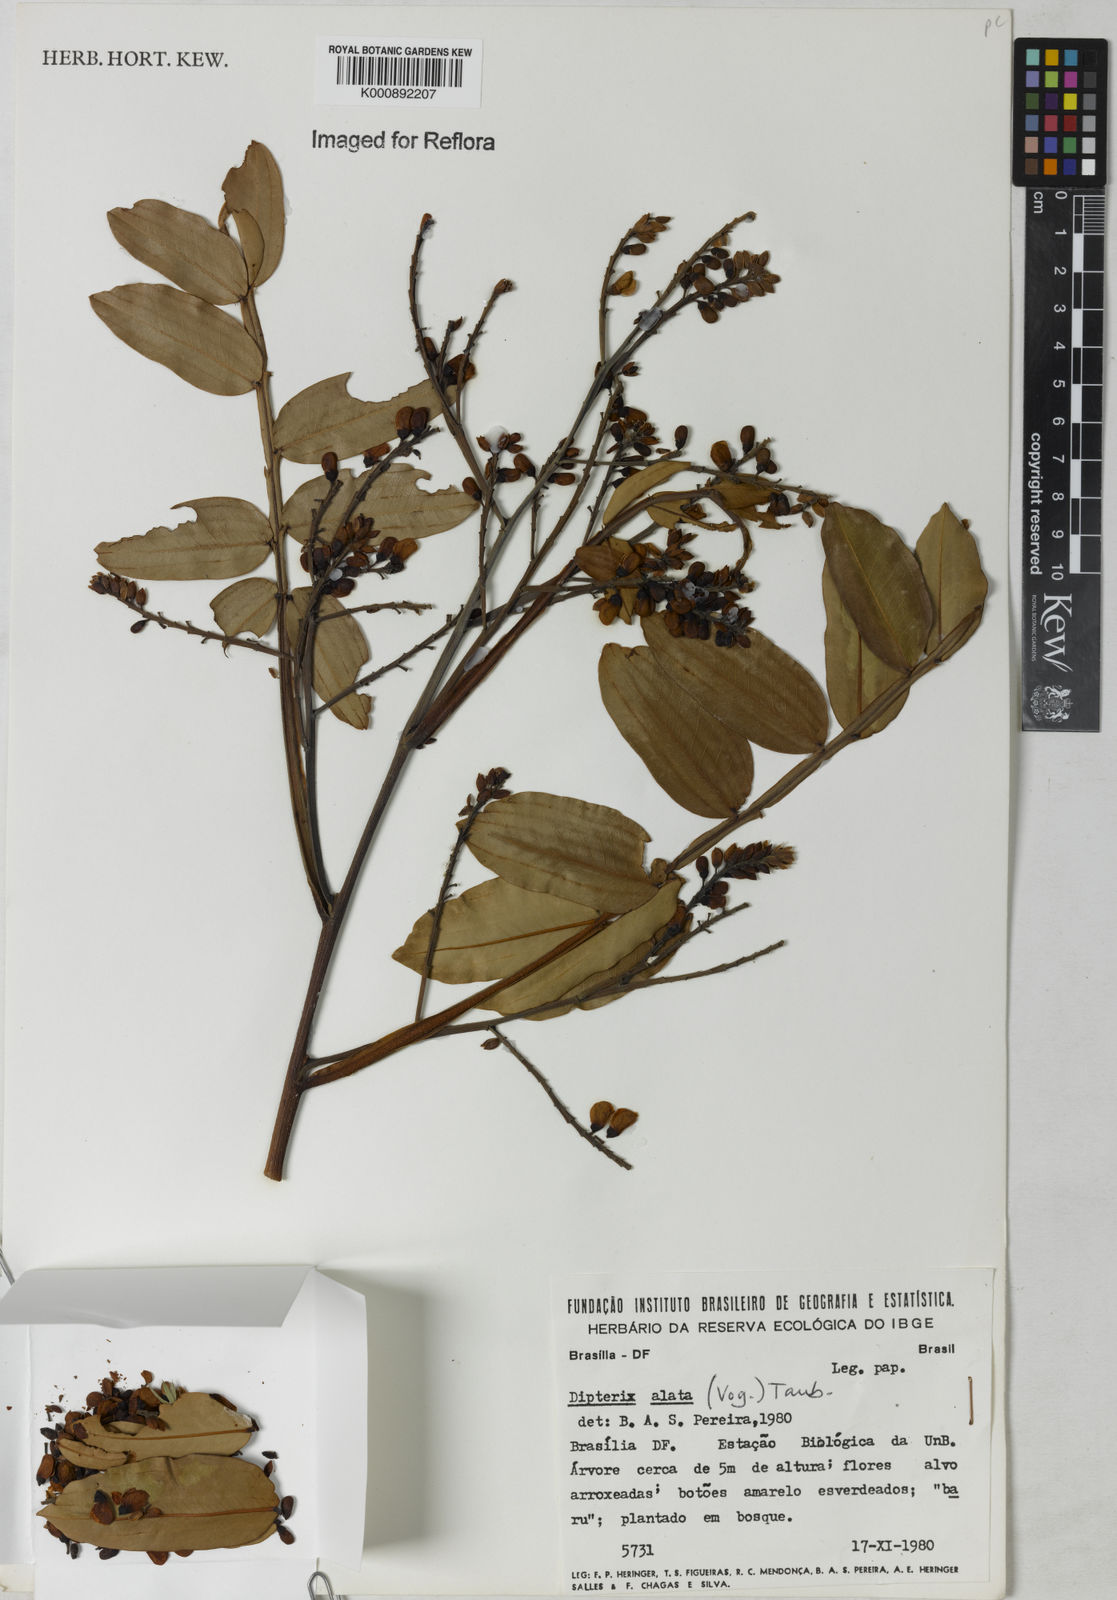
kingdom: Plantae
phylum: Tracheophyta
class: Magnoliopsida
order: Fabales
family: Fabaceae
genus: Dipteryx
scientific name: Dipteryx alata
